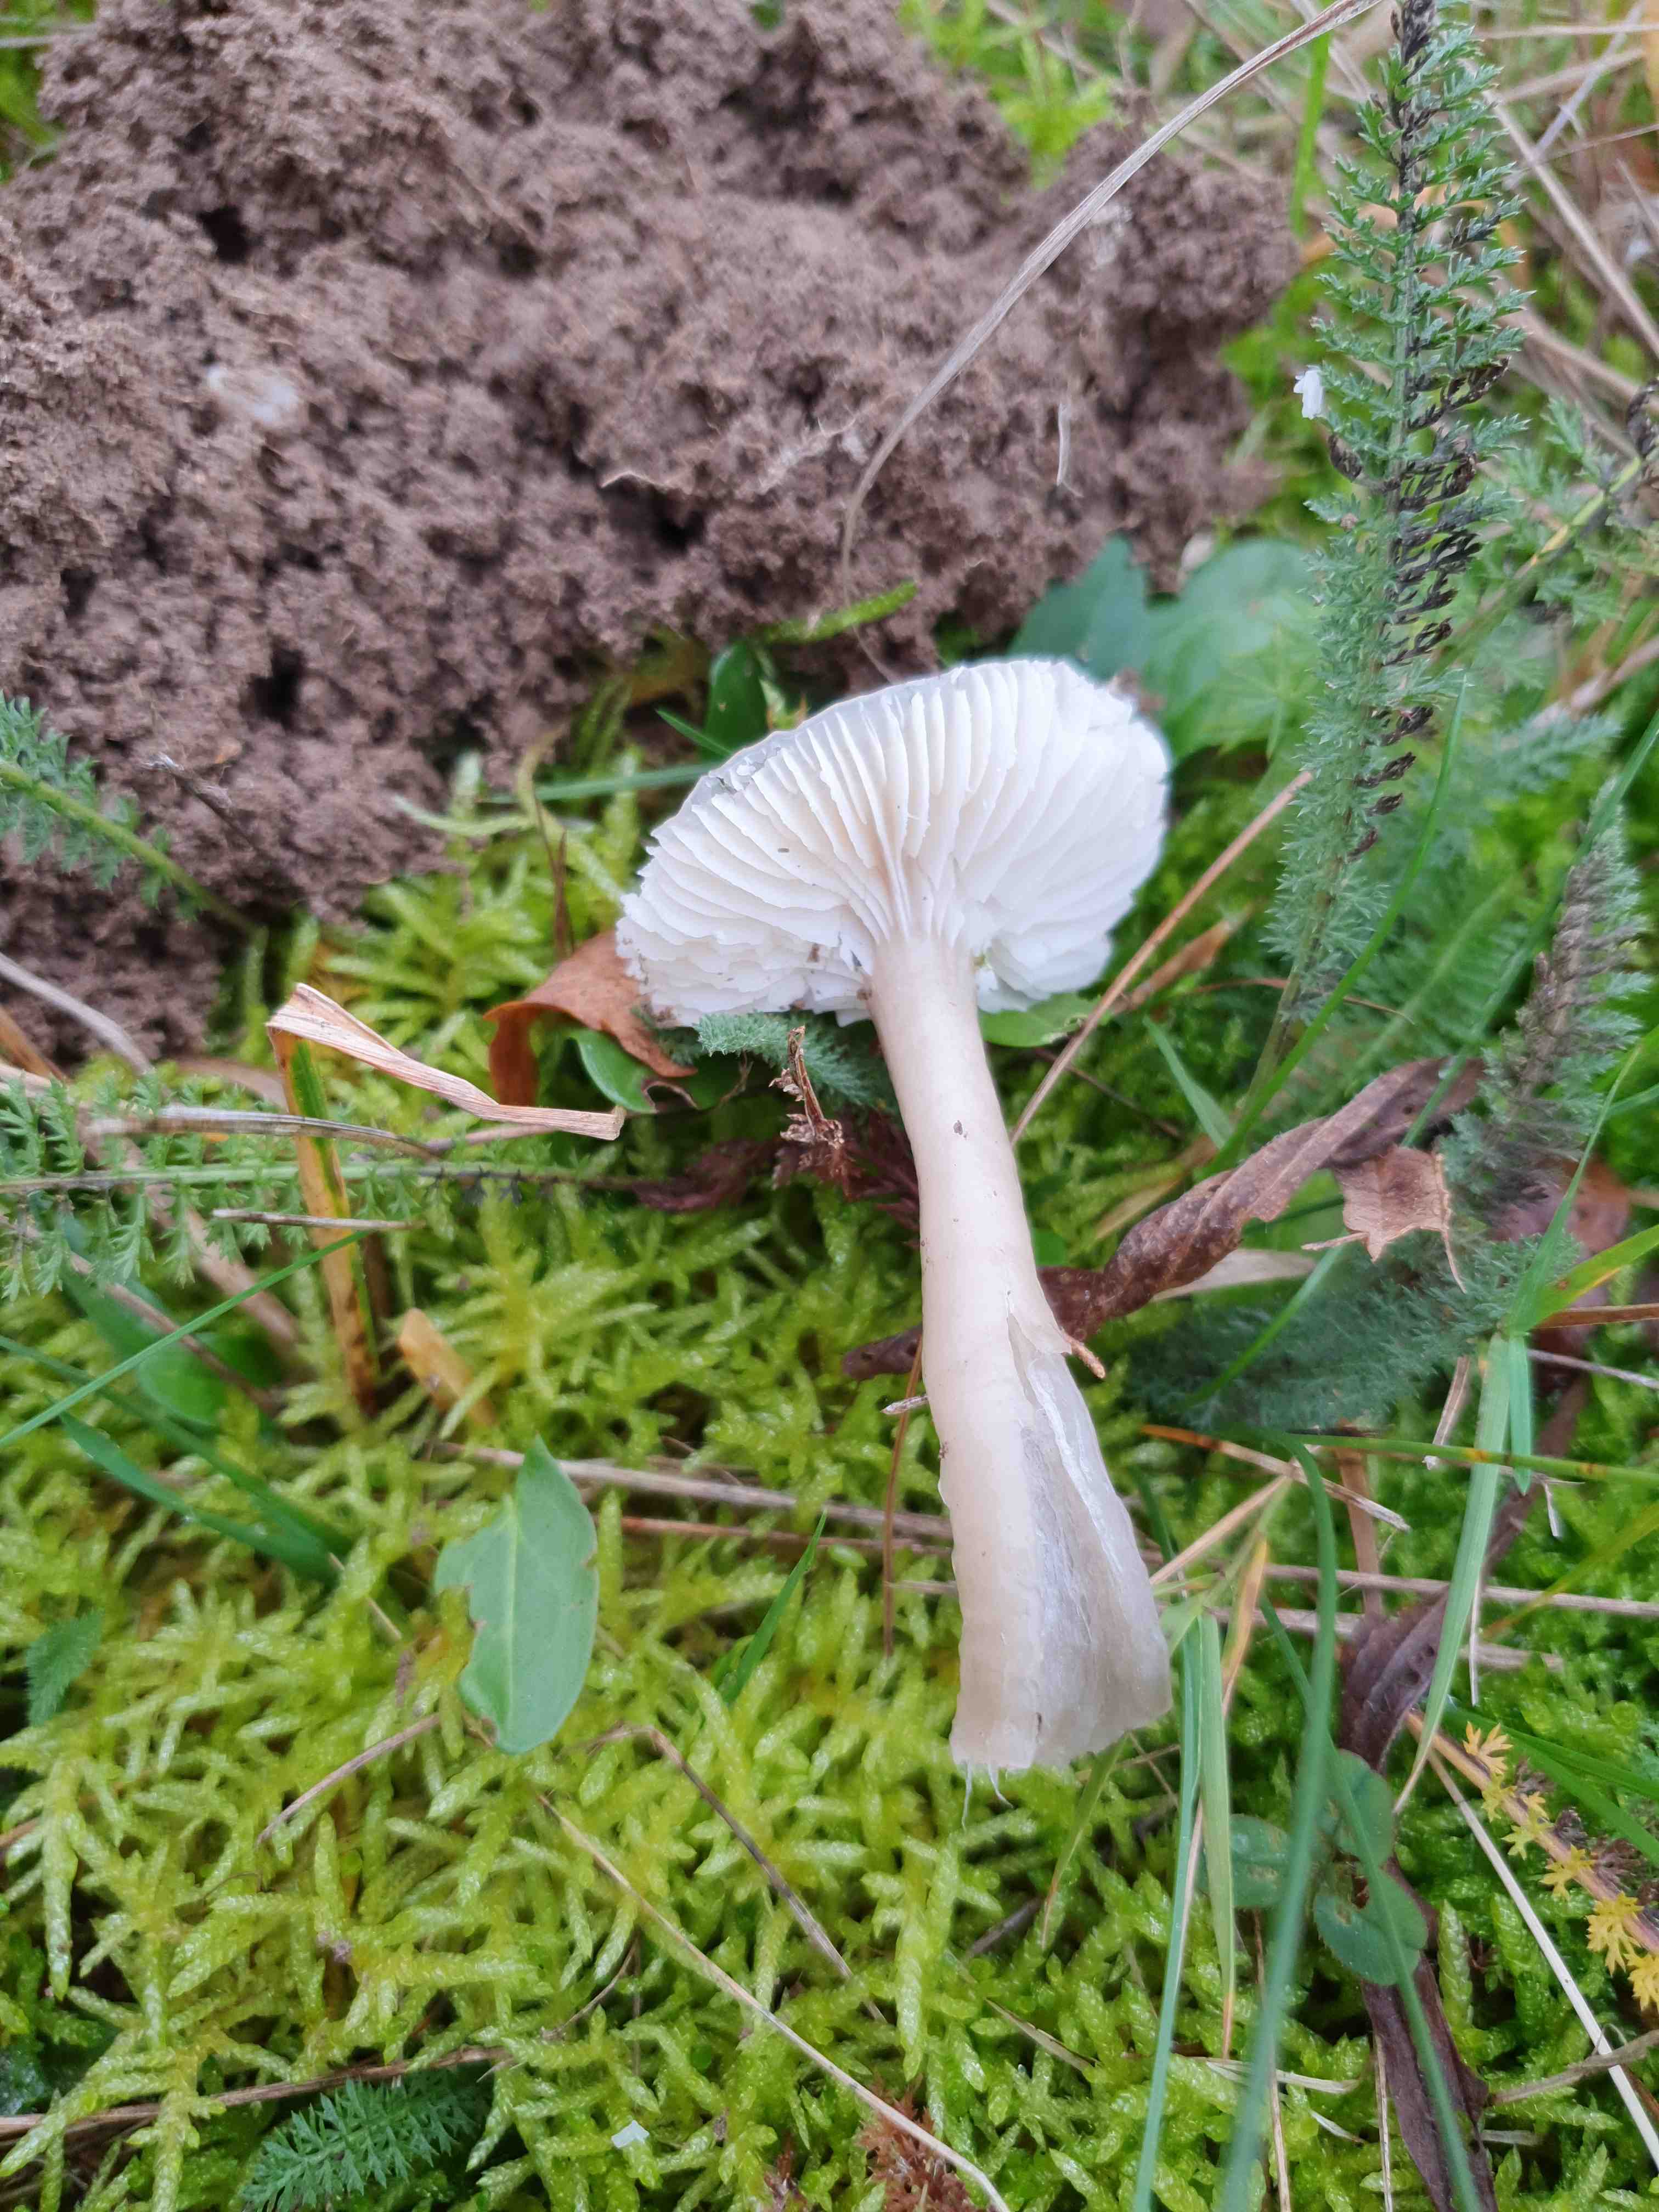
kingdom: Fungi
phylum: Basidiomycota
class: Agaricomycetes
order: Agaricales
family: Hygrophoraceae
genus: Gliophorus
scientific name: Gliophorus irrigatus
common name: slimet vokshat
